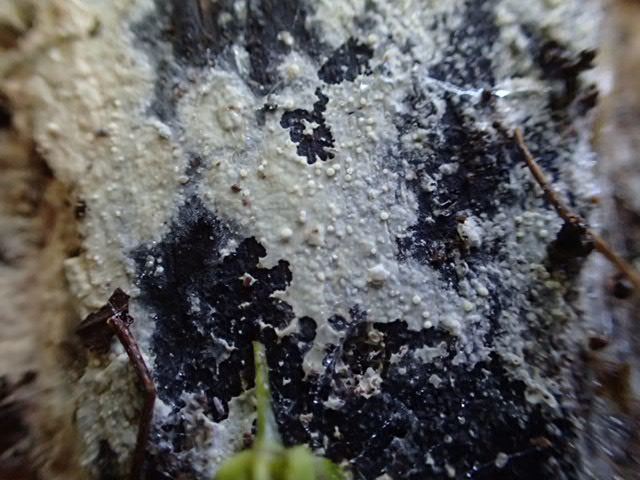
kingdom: Fungi
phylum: Basidiomycota
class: Agaricomycetes
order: Corticiales
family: Corticiaceae
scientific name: Corticiaceae
